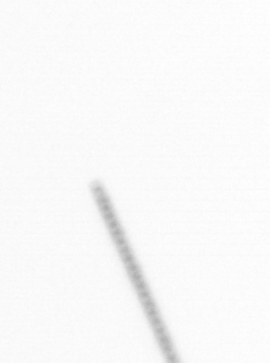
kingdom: Chromista
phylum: Ochrophyta
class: Bacillariophyceae
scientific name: Bacillariophyceae
